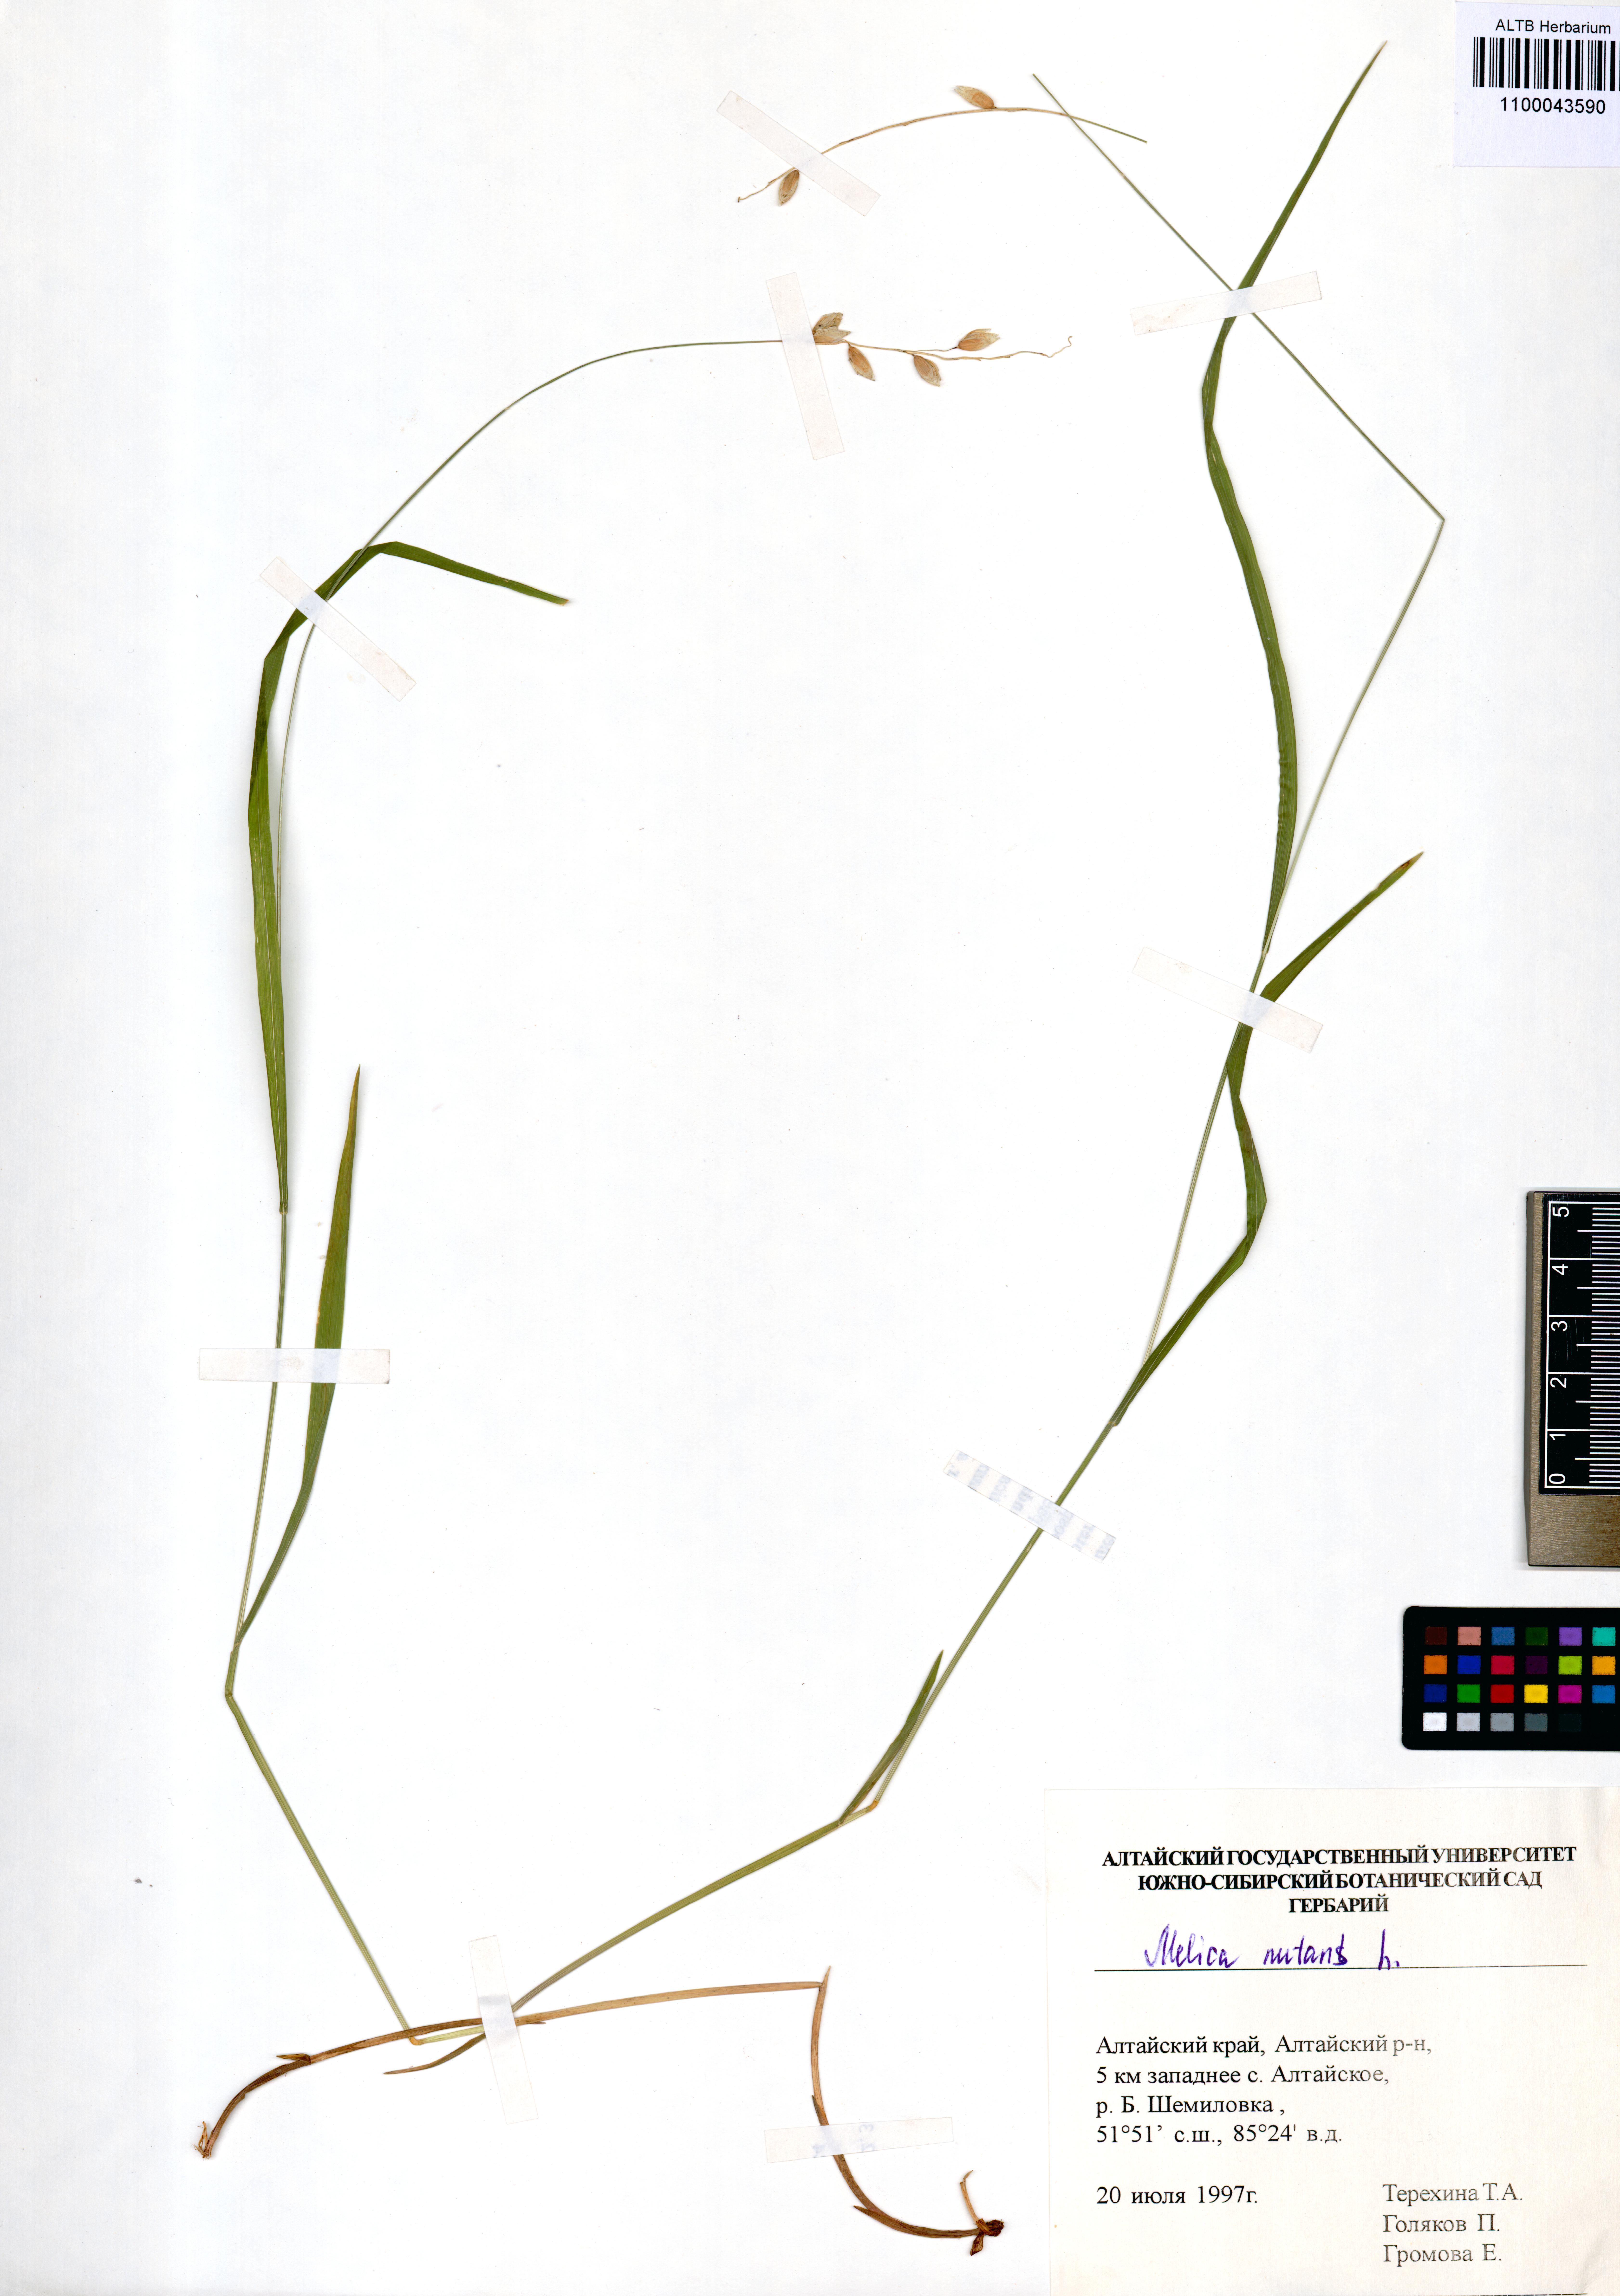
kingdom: Plantae
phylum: Tracheophyta
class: Liliopsida
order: Poales
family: Poaceae
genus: Melica
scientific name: Melica nutans
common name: Mountain melick
